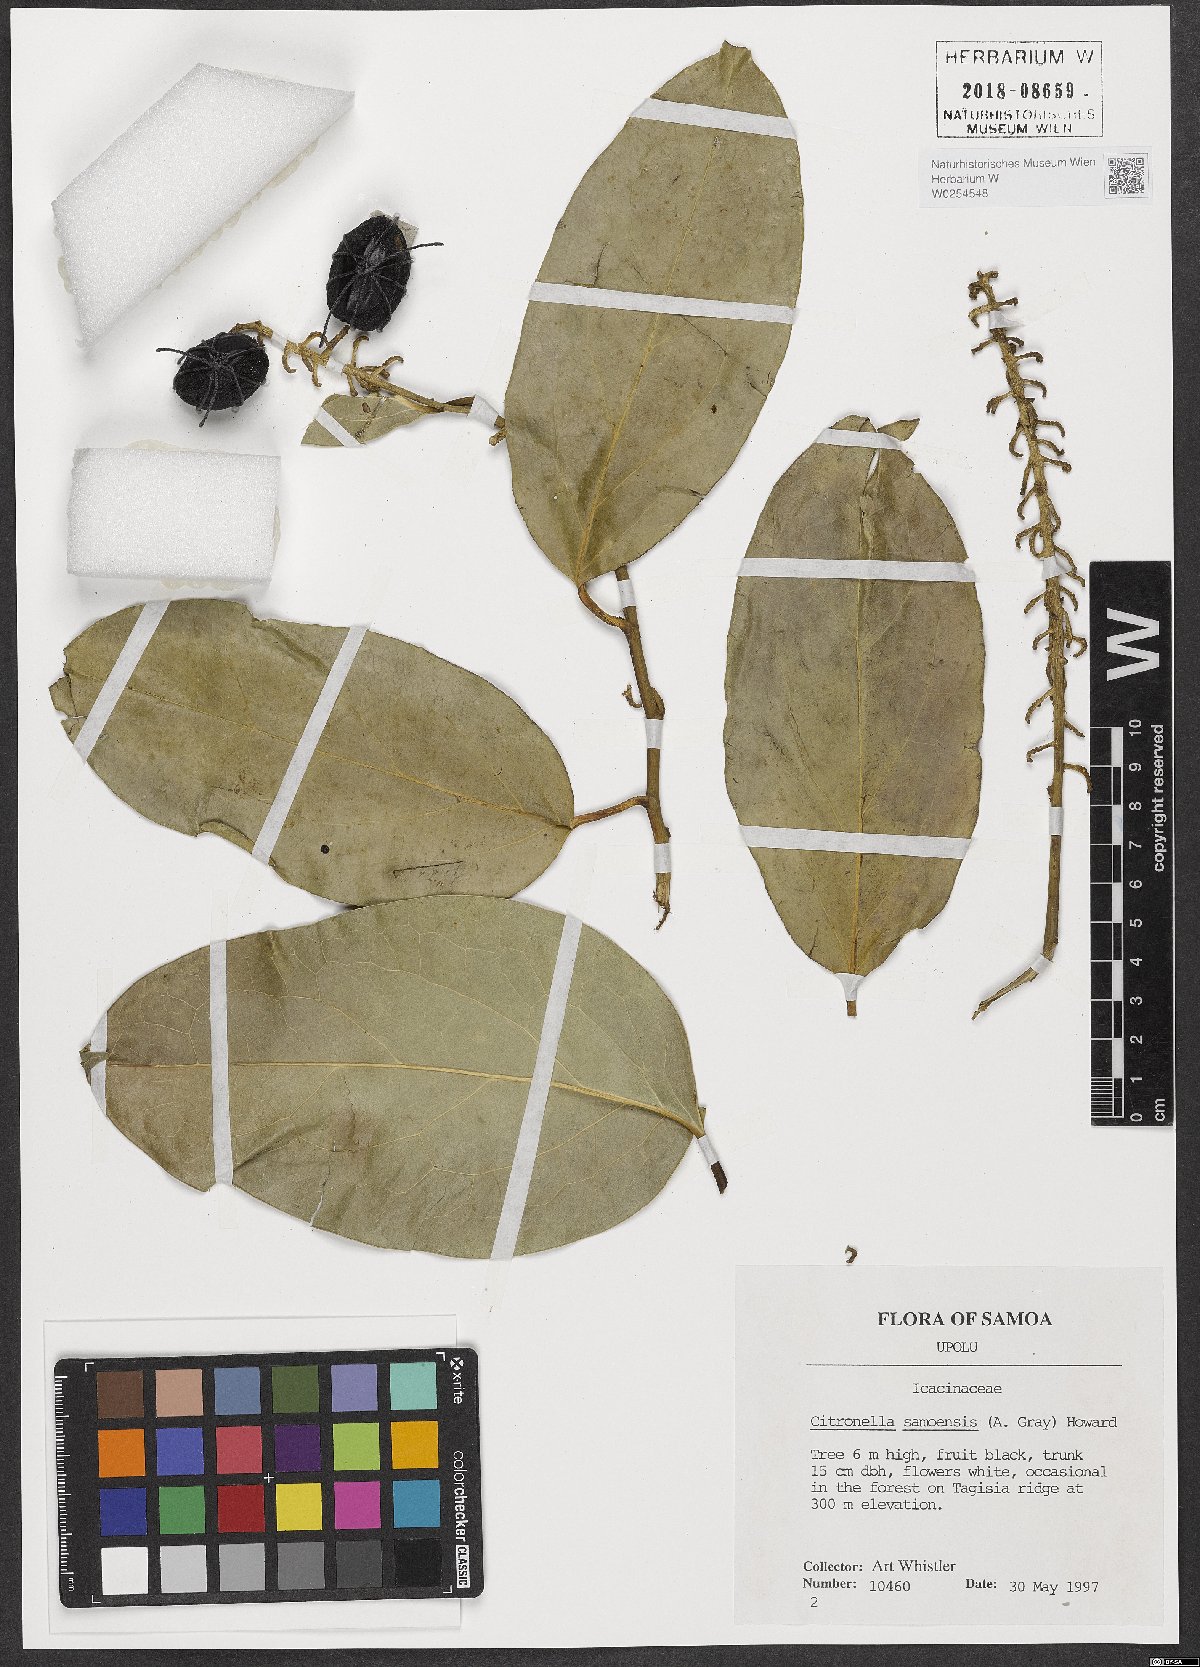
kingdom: Plantae
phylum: Tracheophyta
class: Magnoliopsida
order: Cardiopteridales
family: Cardiopteridaceae
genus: Citronella
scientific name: Citronella samoensis
